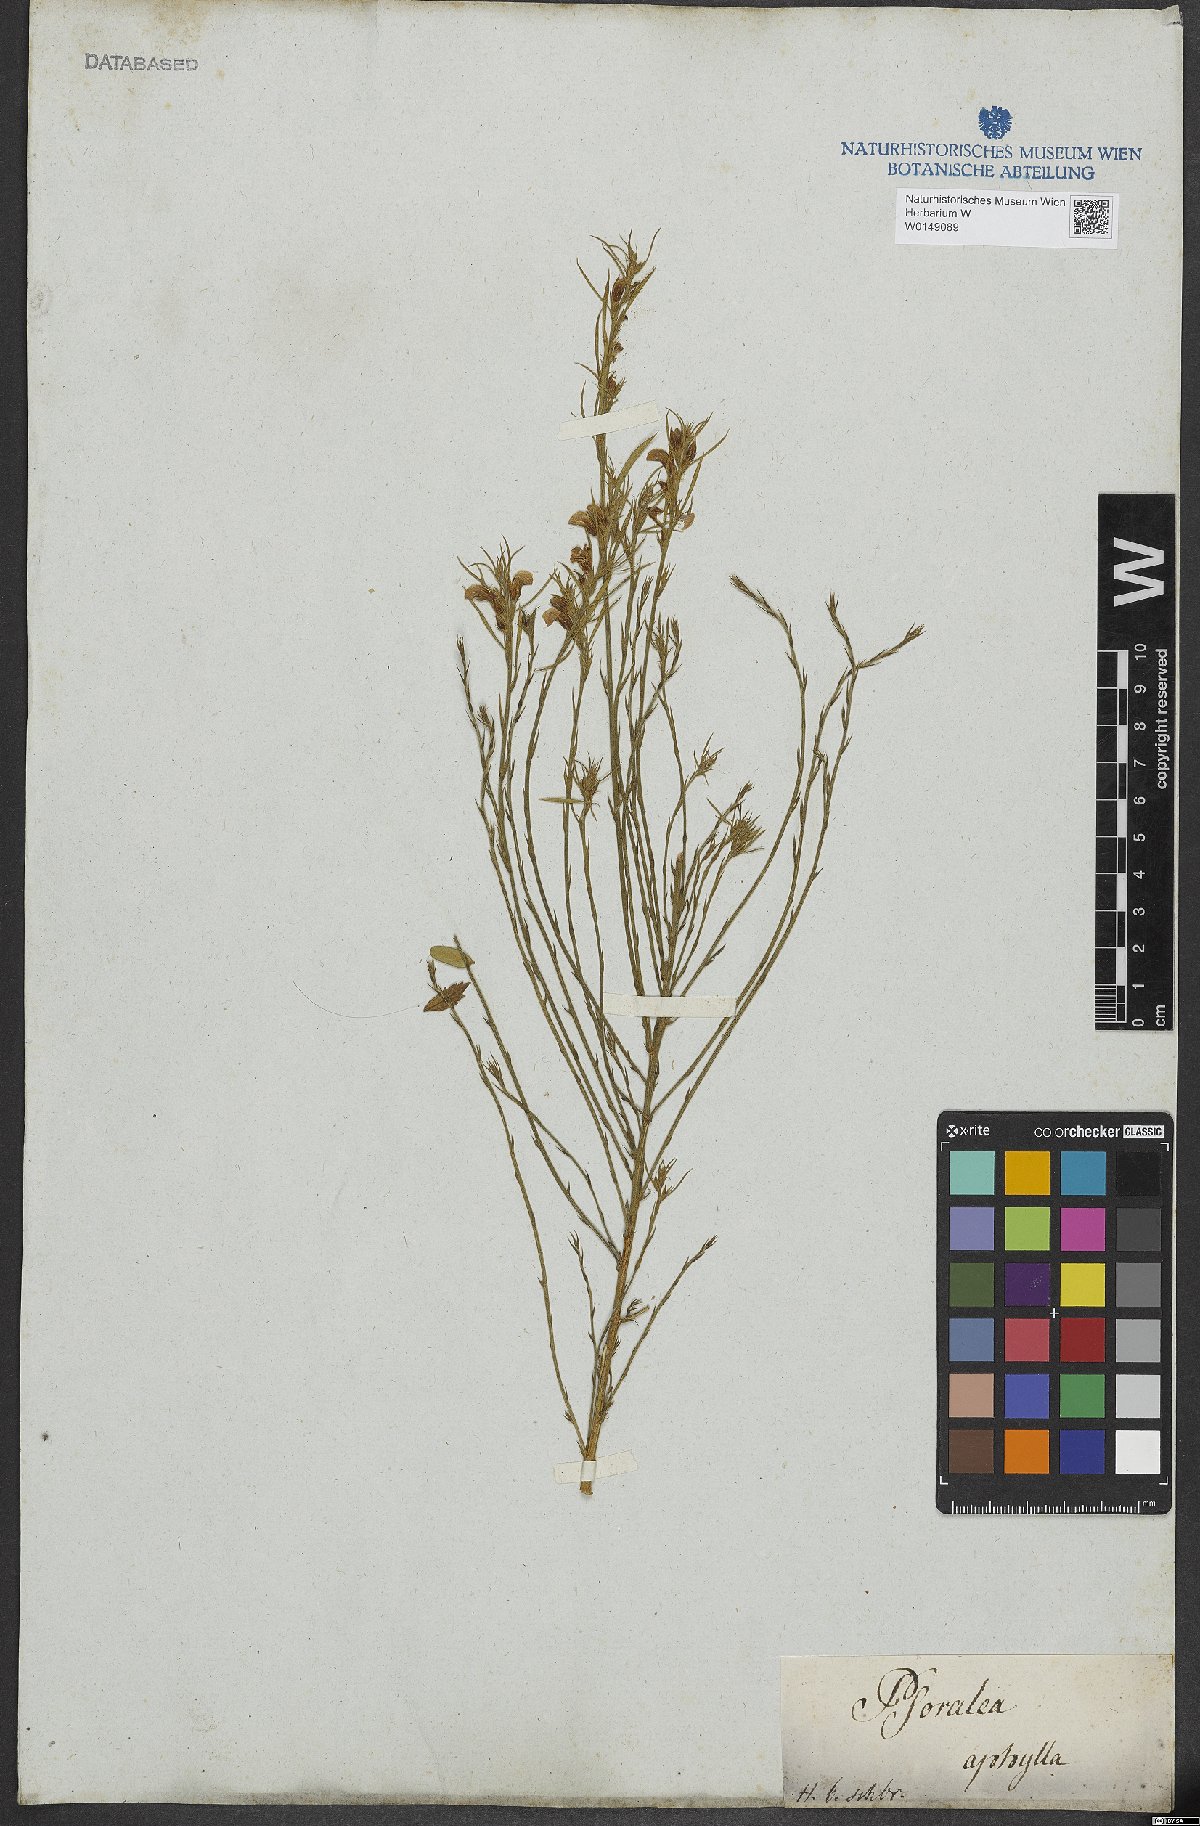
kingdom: Plantae
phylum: Tracheophyta
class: Magnoliopsida
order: Fabales
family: Fabaceae
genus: Psoralea
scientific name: Psoralea aphylla
